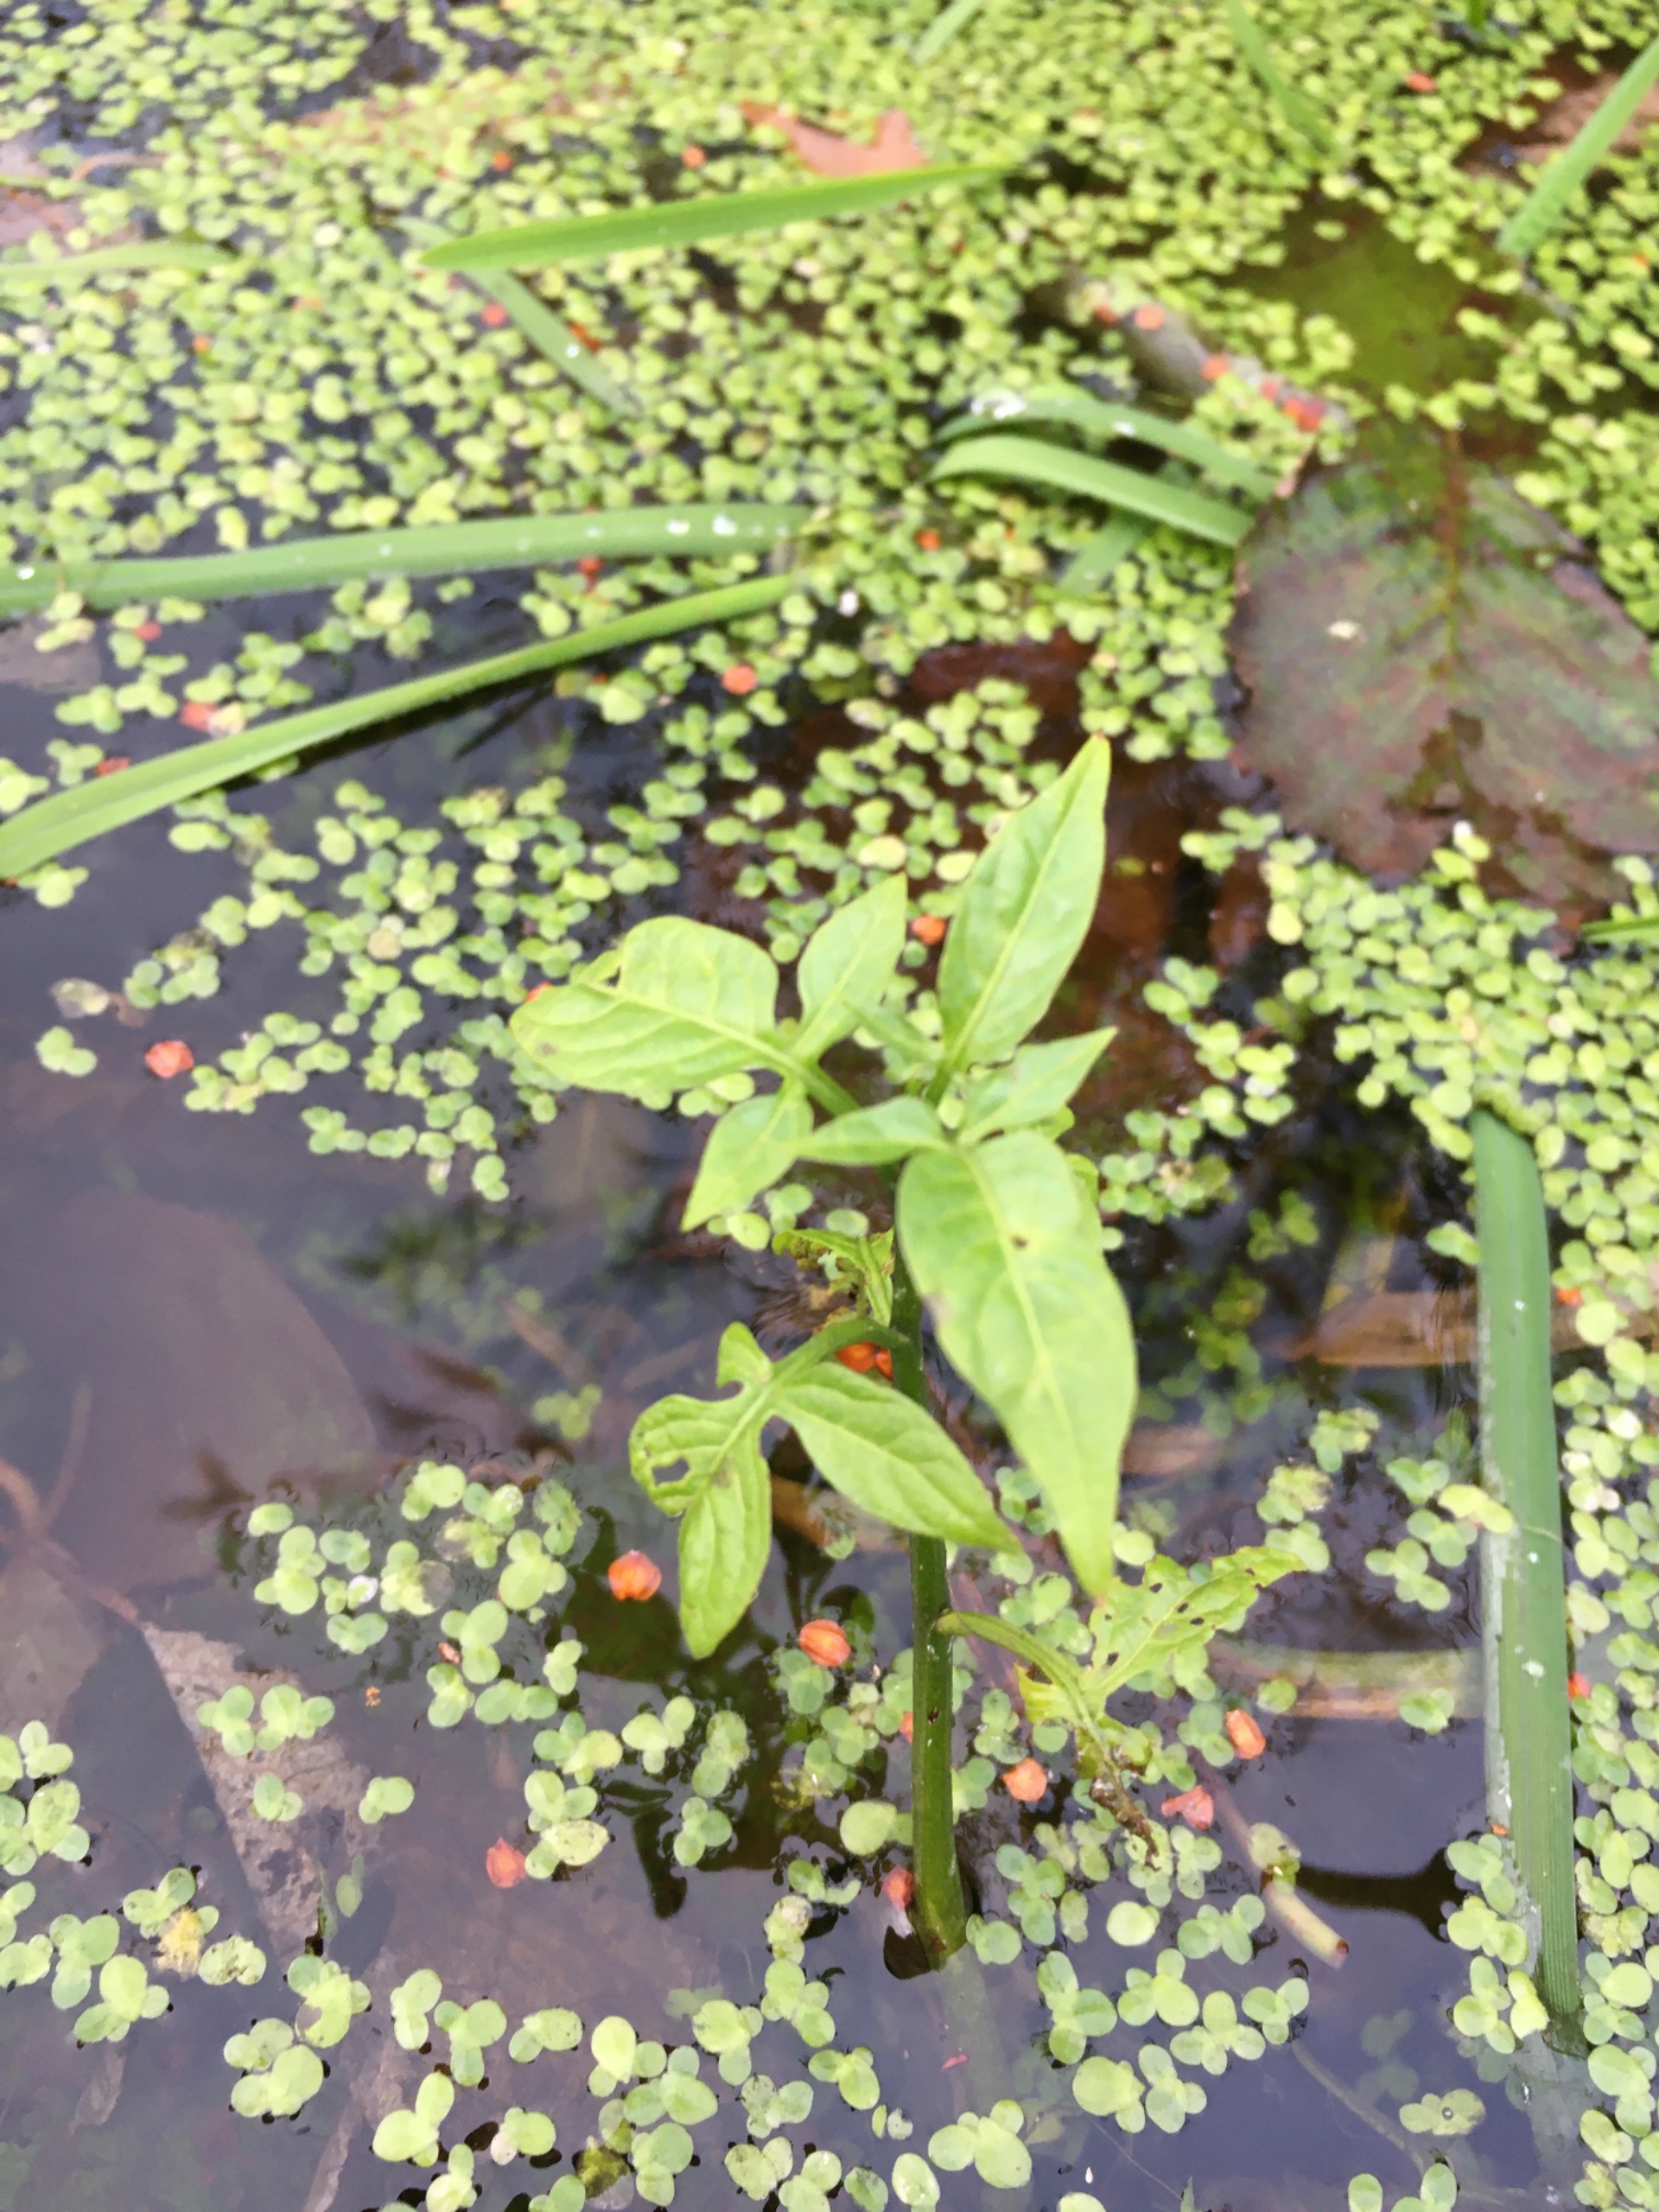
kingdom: Plantae
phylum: Tracheophyta
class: Magnoliopsida
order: Solanales
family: Solanaceae
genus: Solanum
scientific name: Solanum dulcamara
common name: Bittersød natskygge
